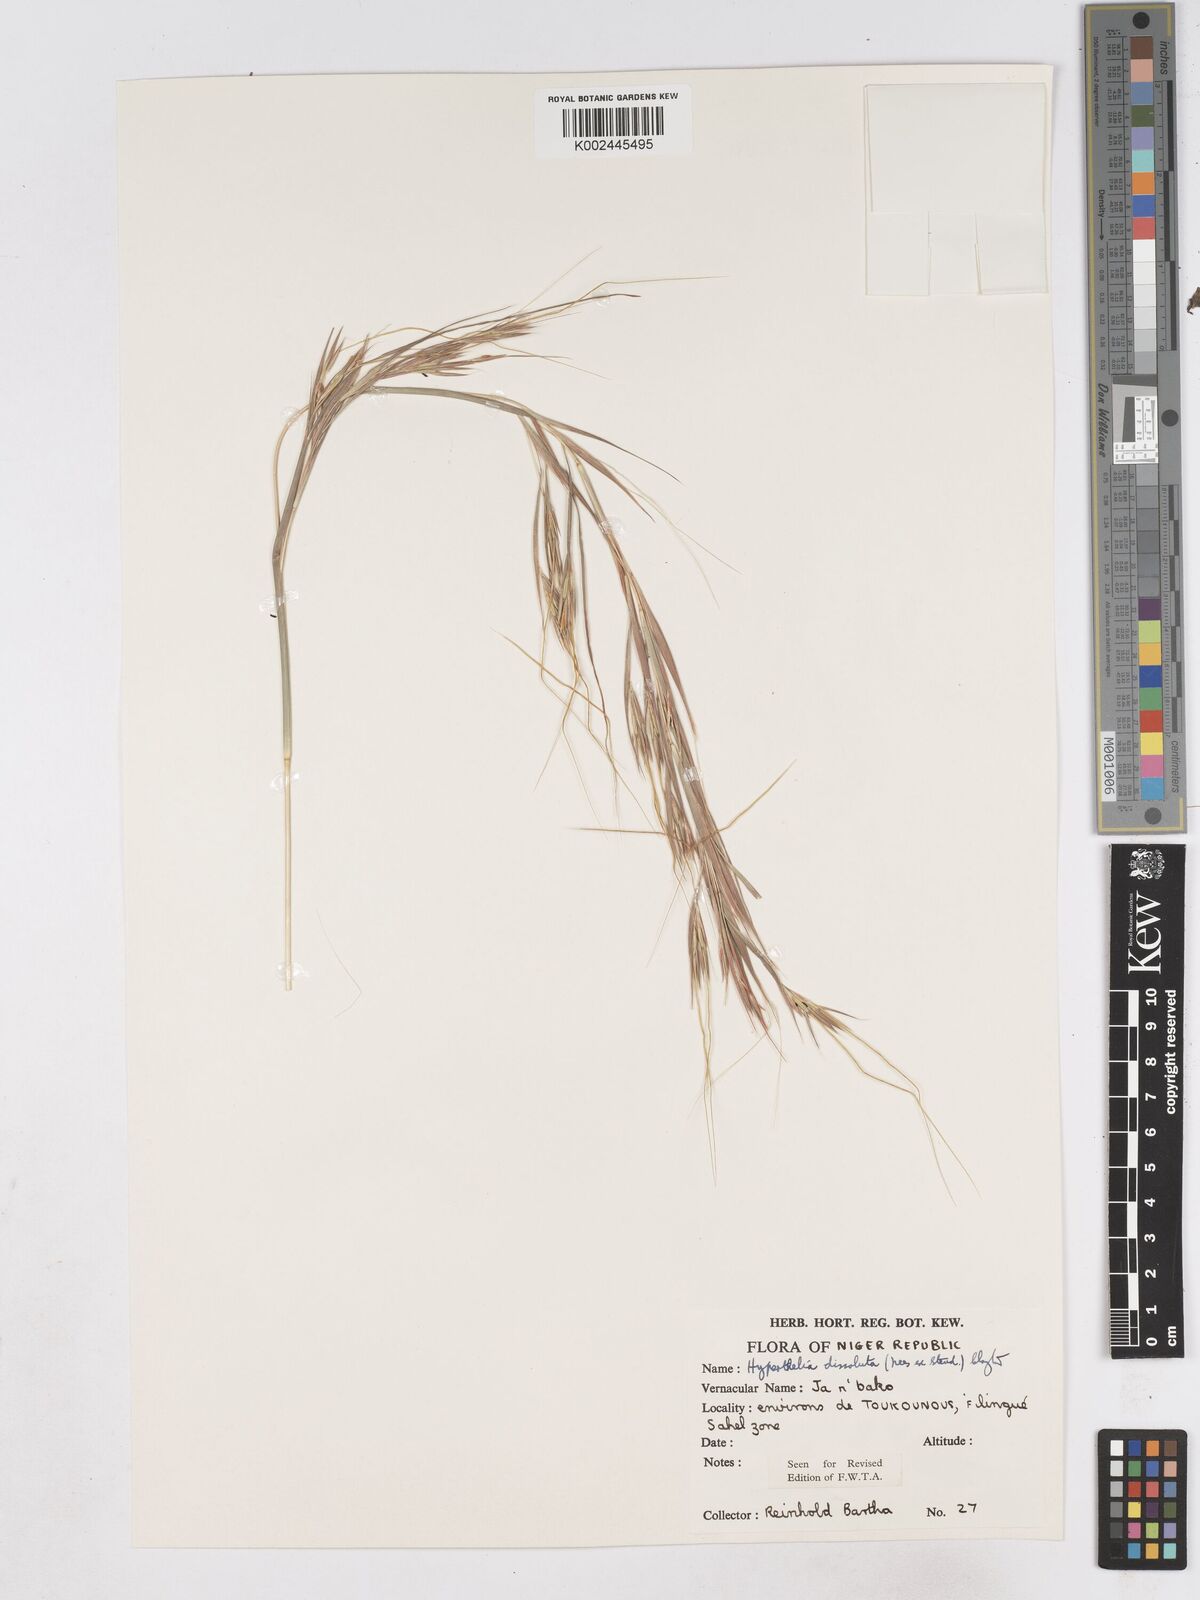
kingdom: Plantae
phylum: Tracheophyta
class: Liliopsida
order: Poales
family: Poaceae
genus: Hyperthelia
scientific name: Hyperthelia dissoluta
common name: Yellow thatching grass
